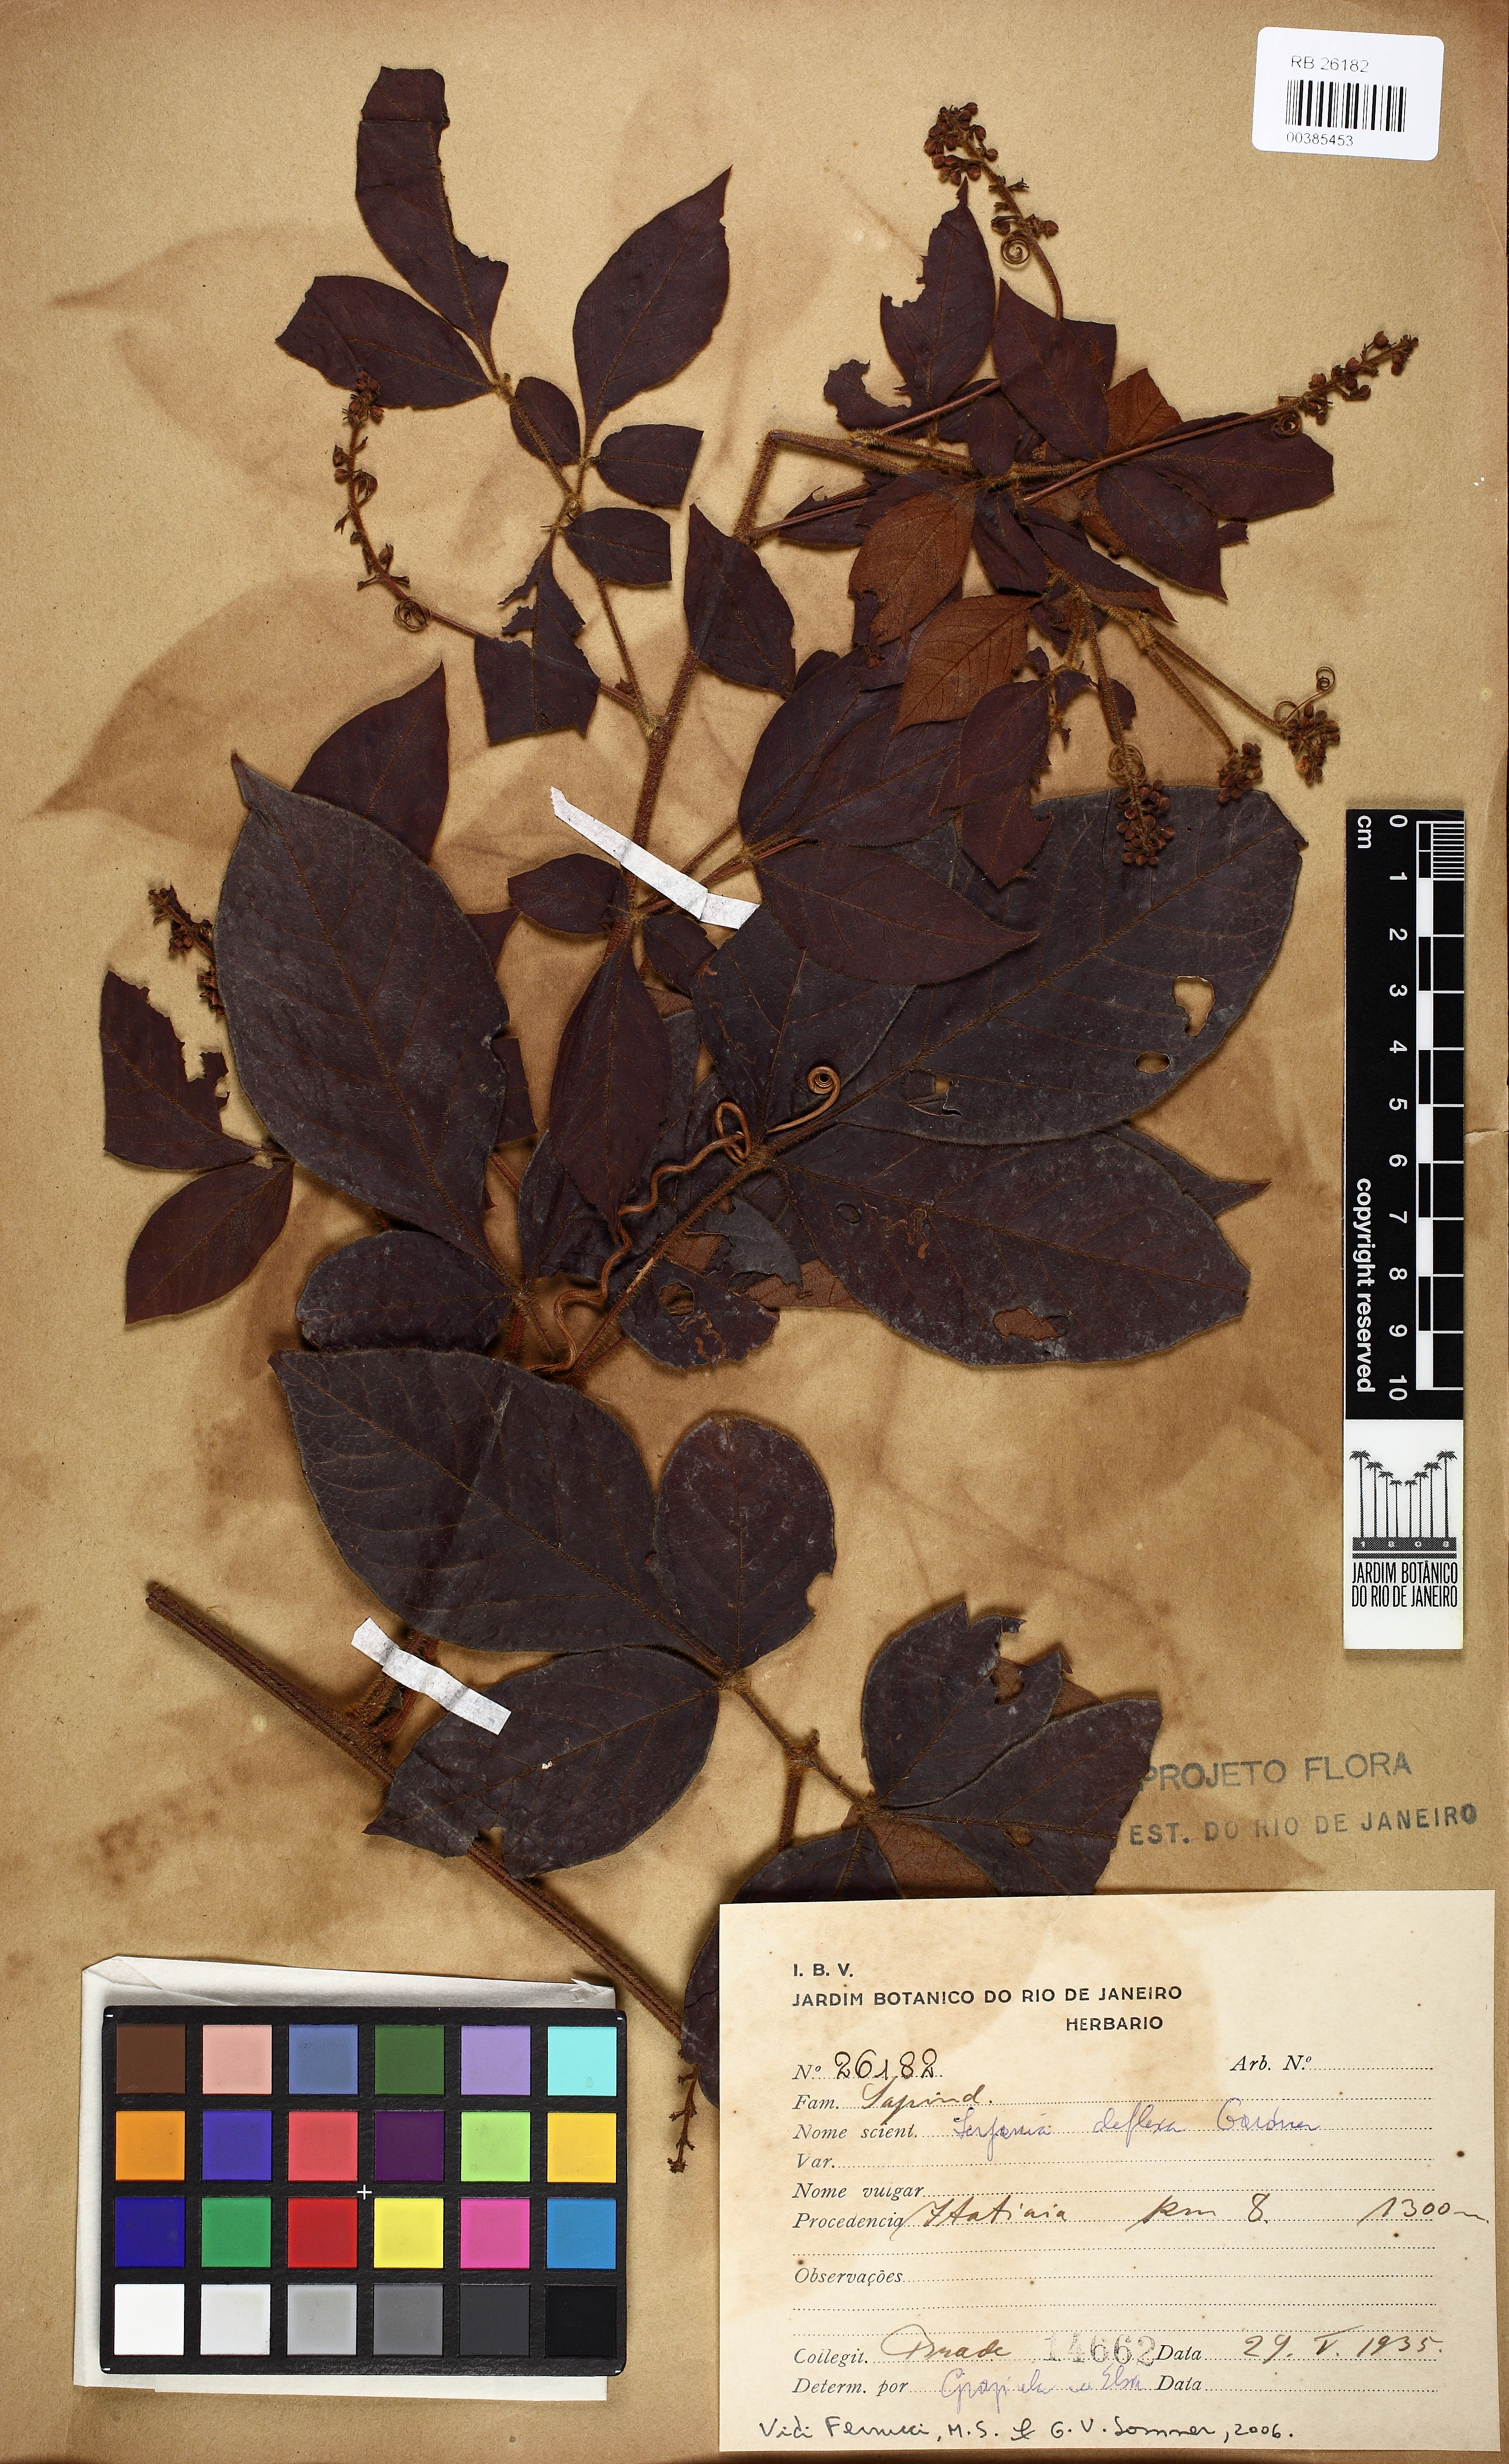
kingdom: Plantae
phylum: Tracheophyta
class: Magnoliopsida
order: Sapindales
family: Sapindaceae
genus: Serjania
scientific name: Serjania deflexa
